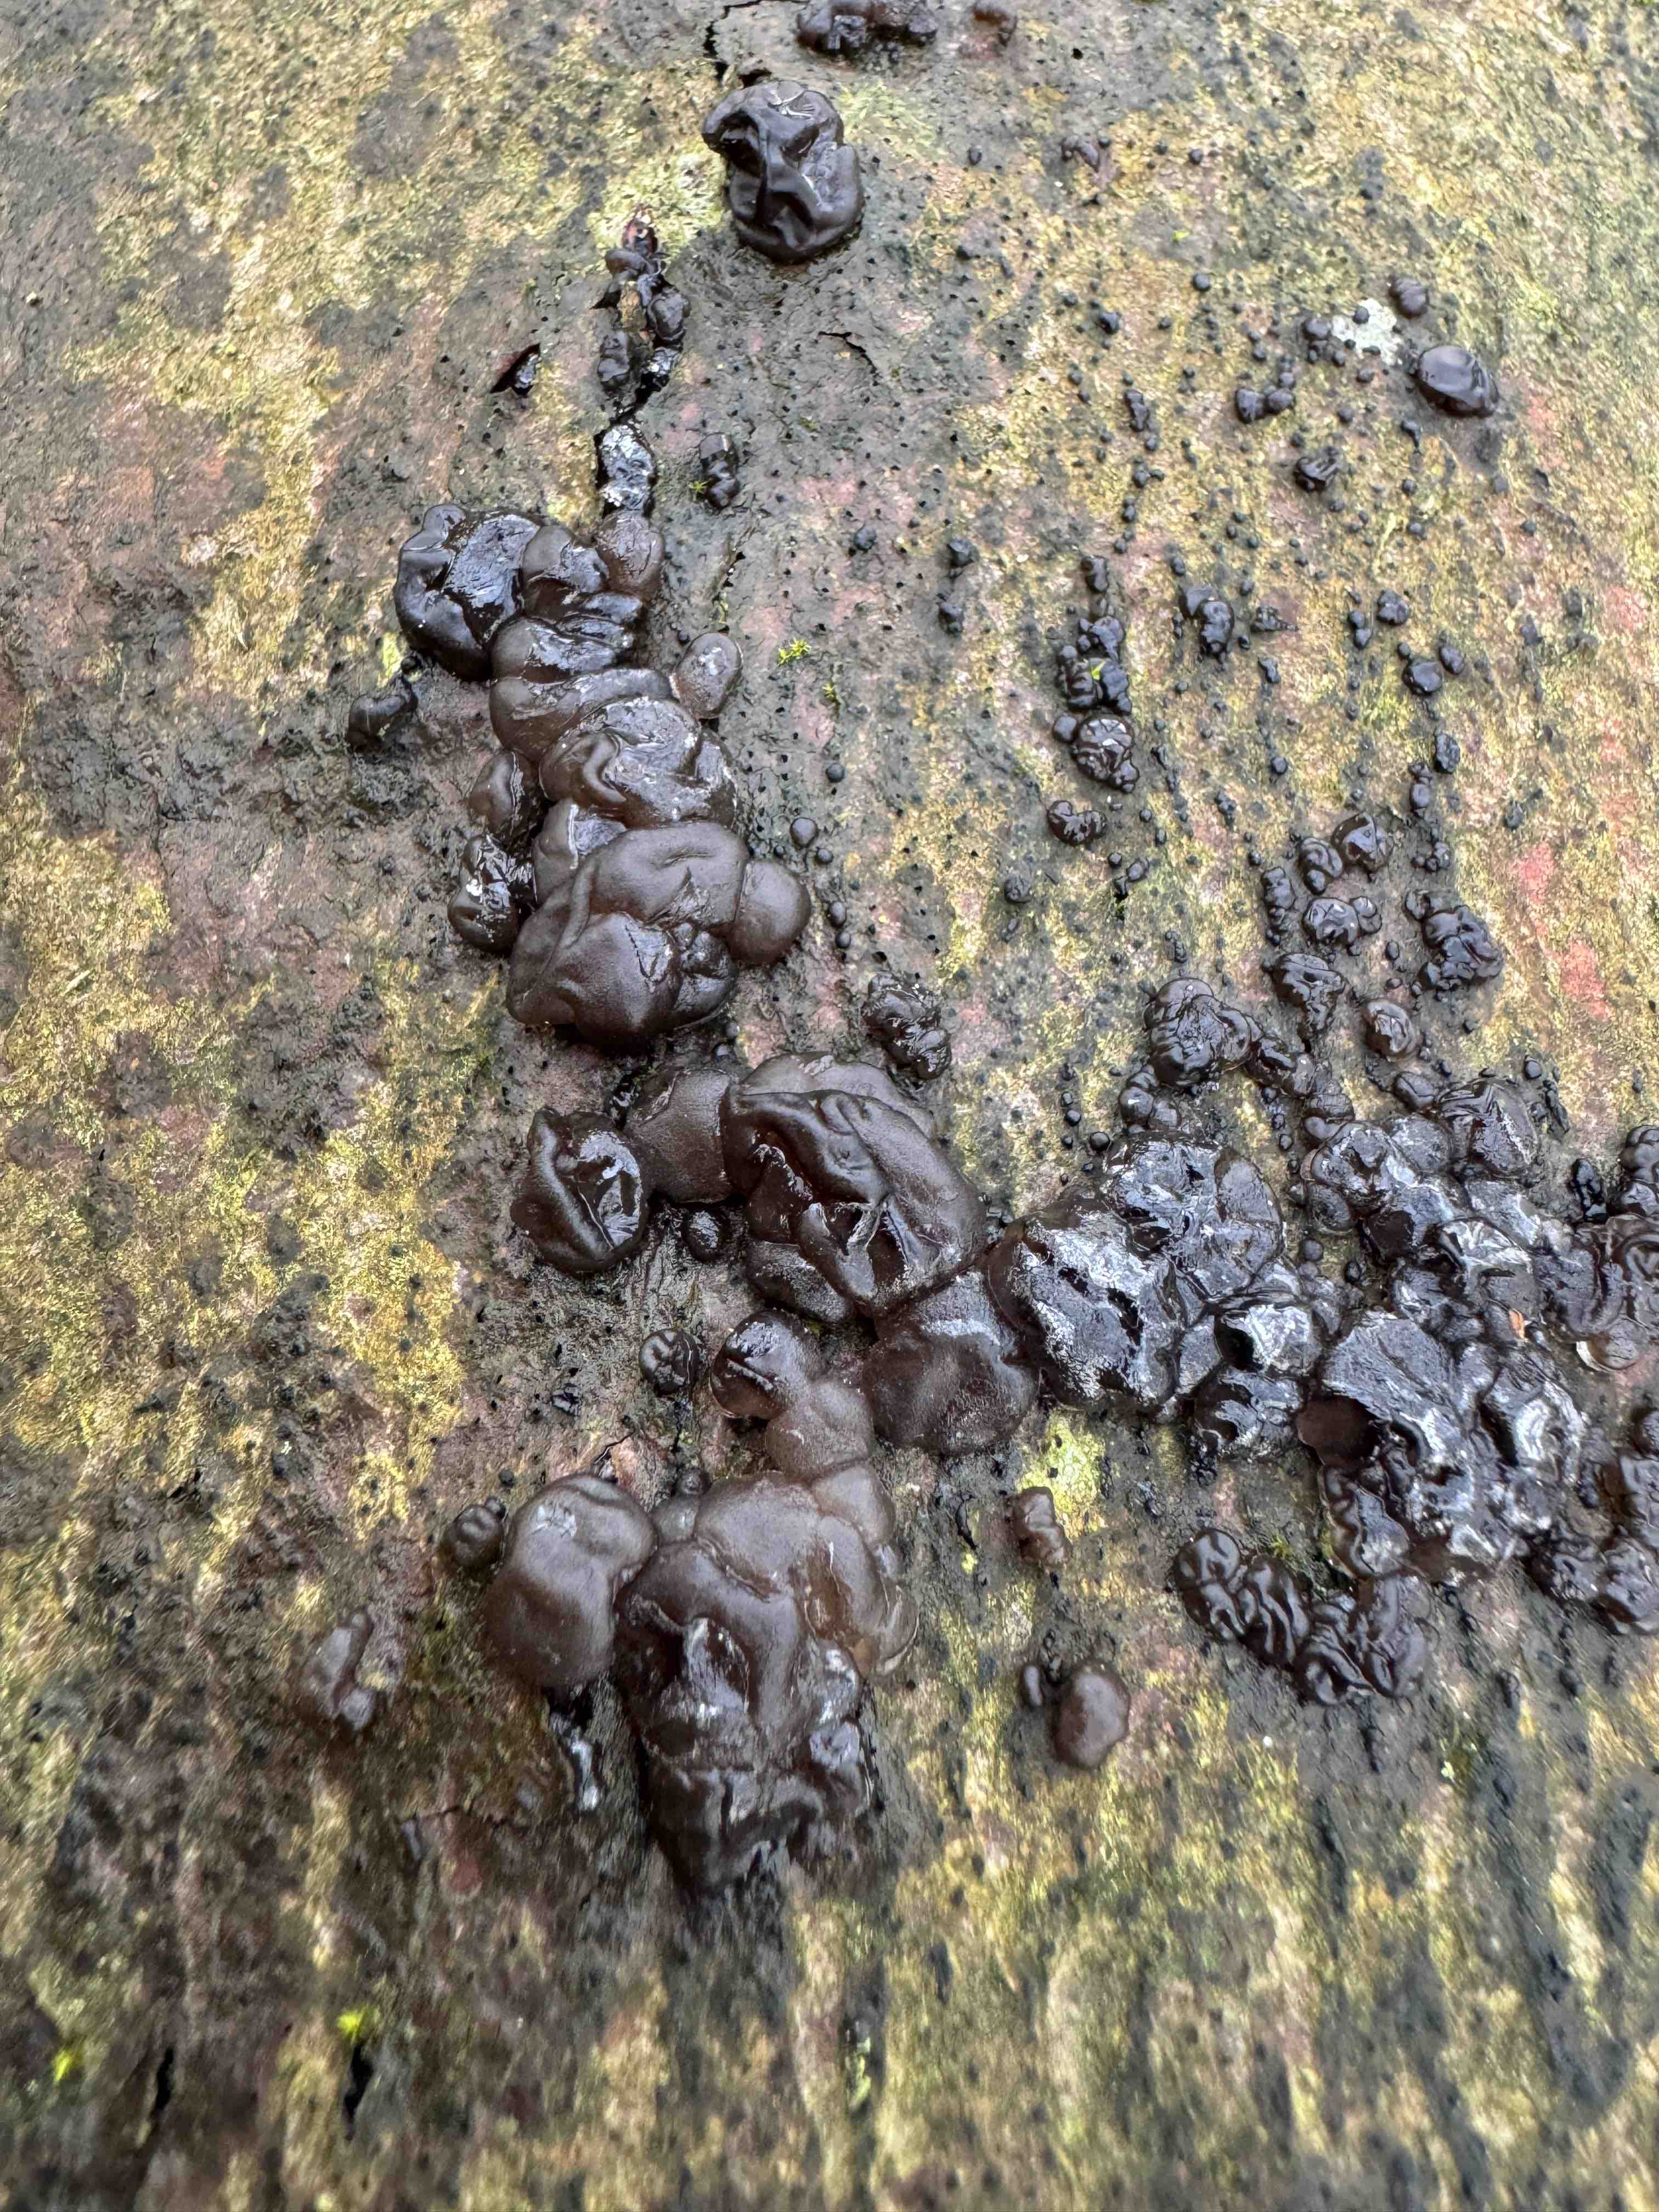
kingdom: Fungi
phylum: Basidiomycota
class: Agaricomycetes
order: Auriculariales
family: Auriculariaceae
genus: Exidia
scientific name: Exidia nigricans
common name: almindelig bævretop
